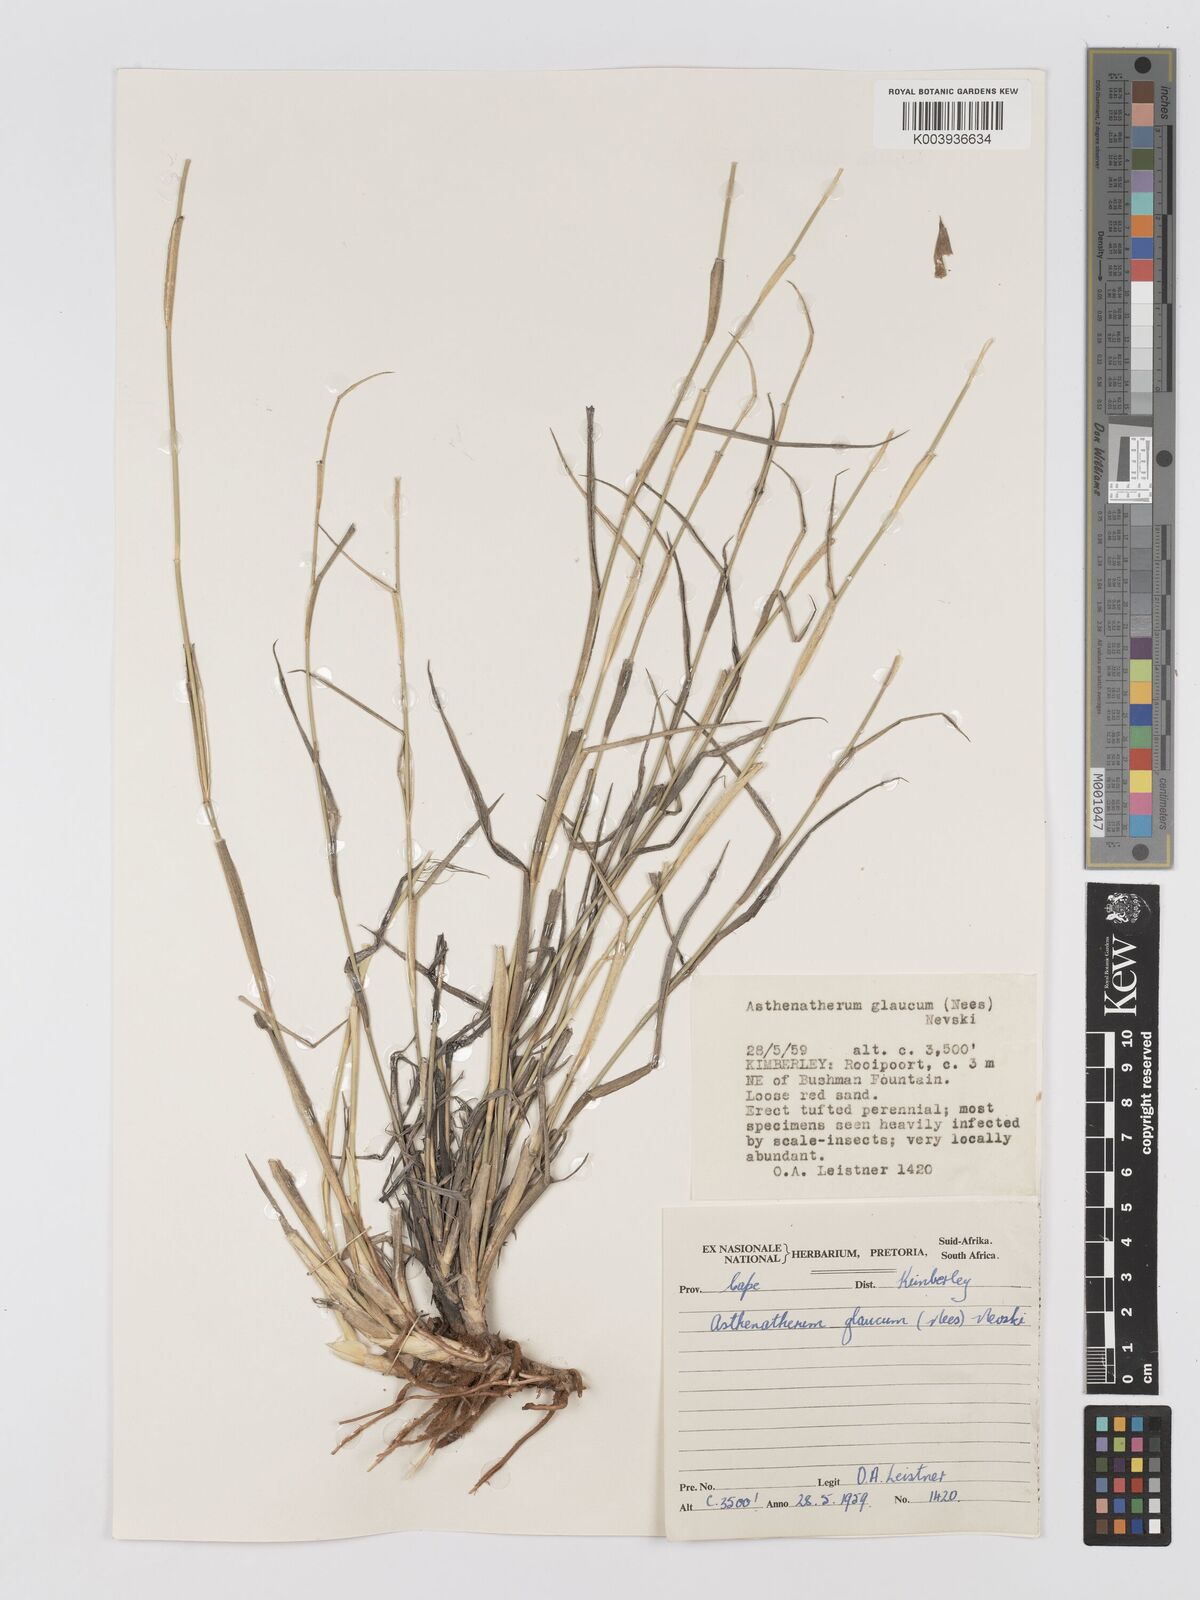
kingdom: Plantae
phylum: Tracheophyta
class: Liliopsida
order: Poales
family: Poaceae
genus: Centropodia
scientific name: Centropodia glauca
